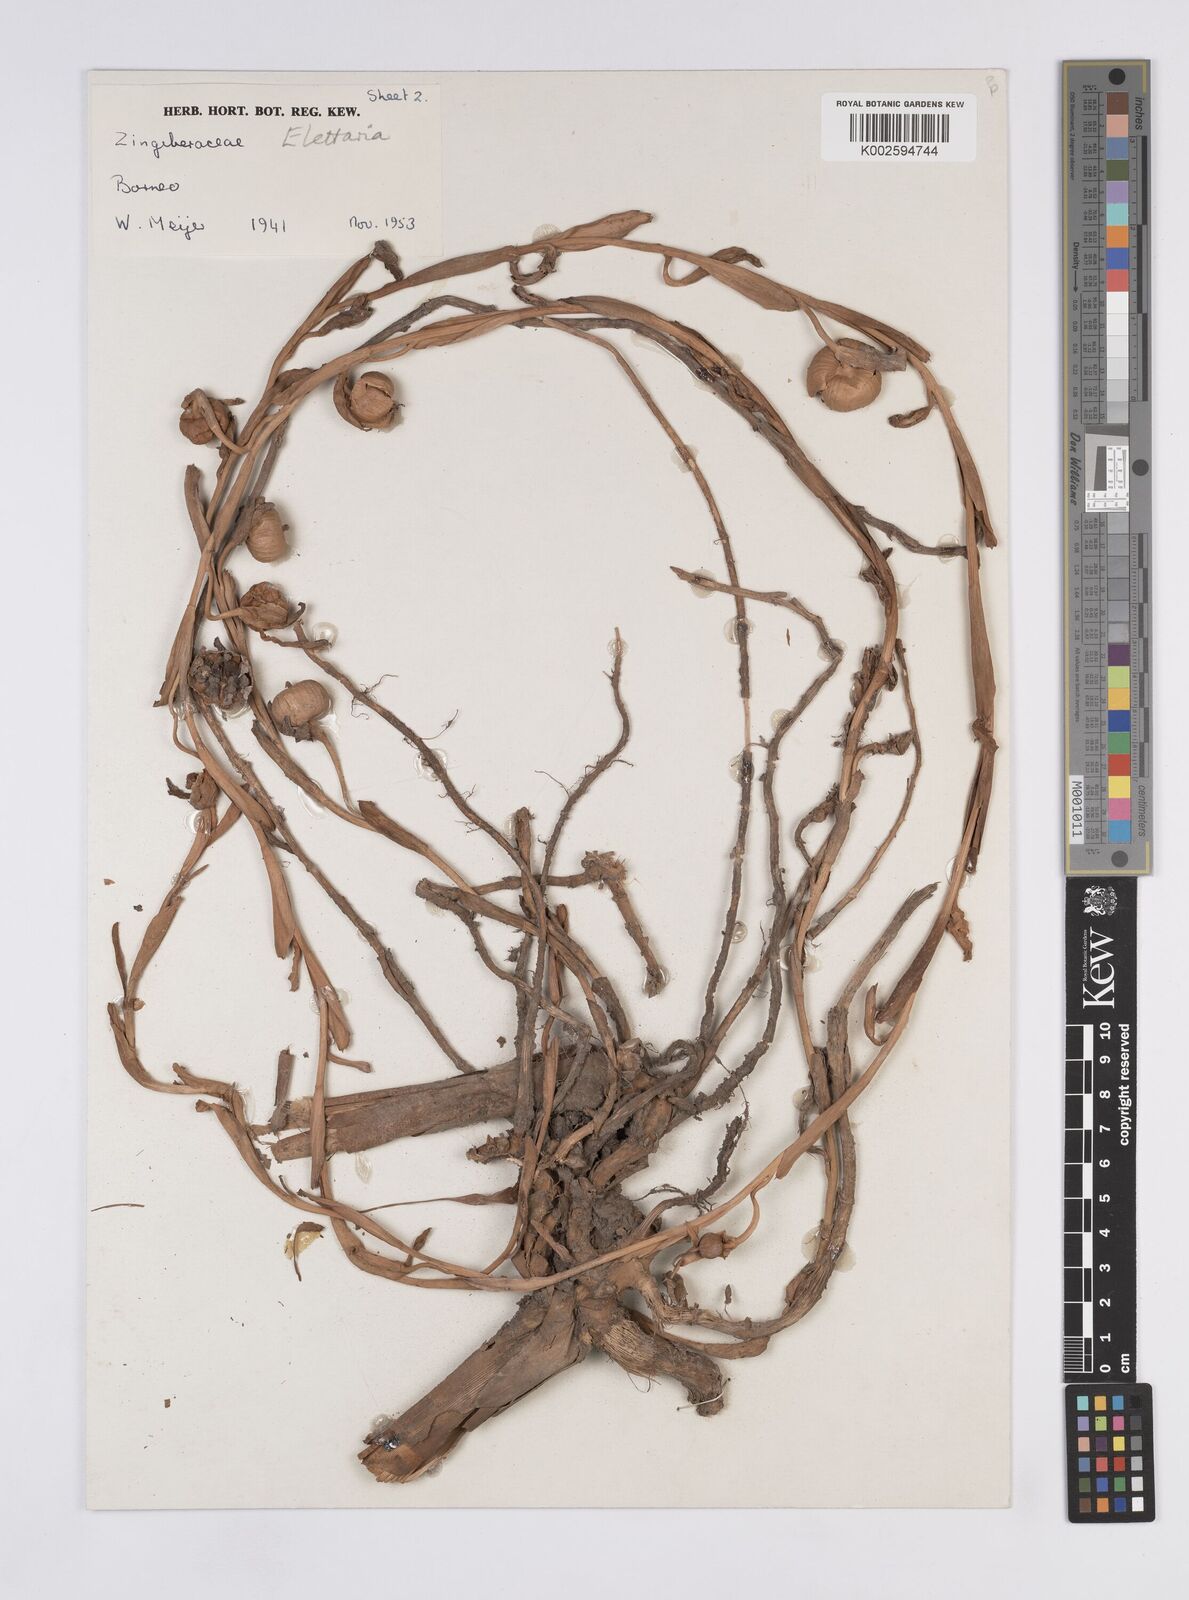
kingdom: Plantae
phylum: Tracheophyta
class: Liliopsida
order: Zingiberales
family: Zingiberaceae
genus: Sulettaria
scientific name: Sulettaria longituba
